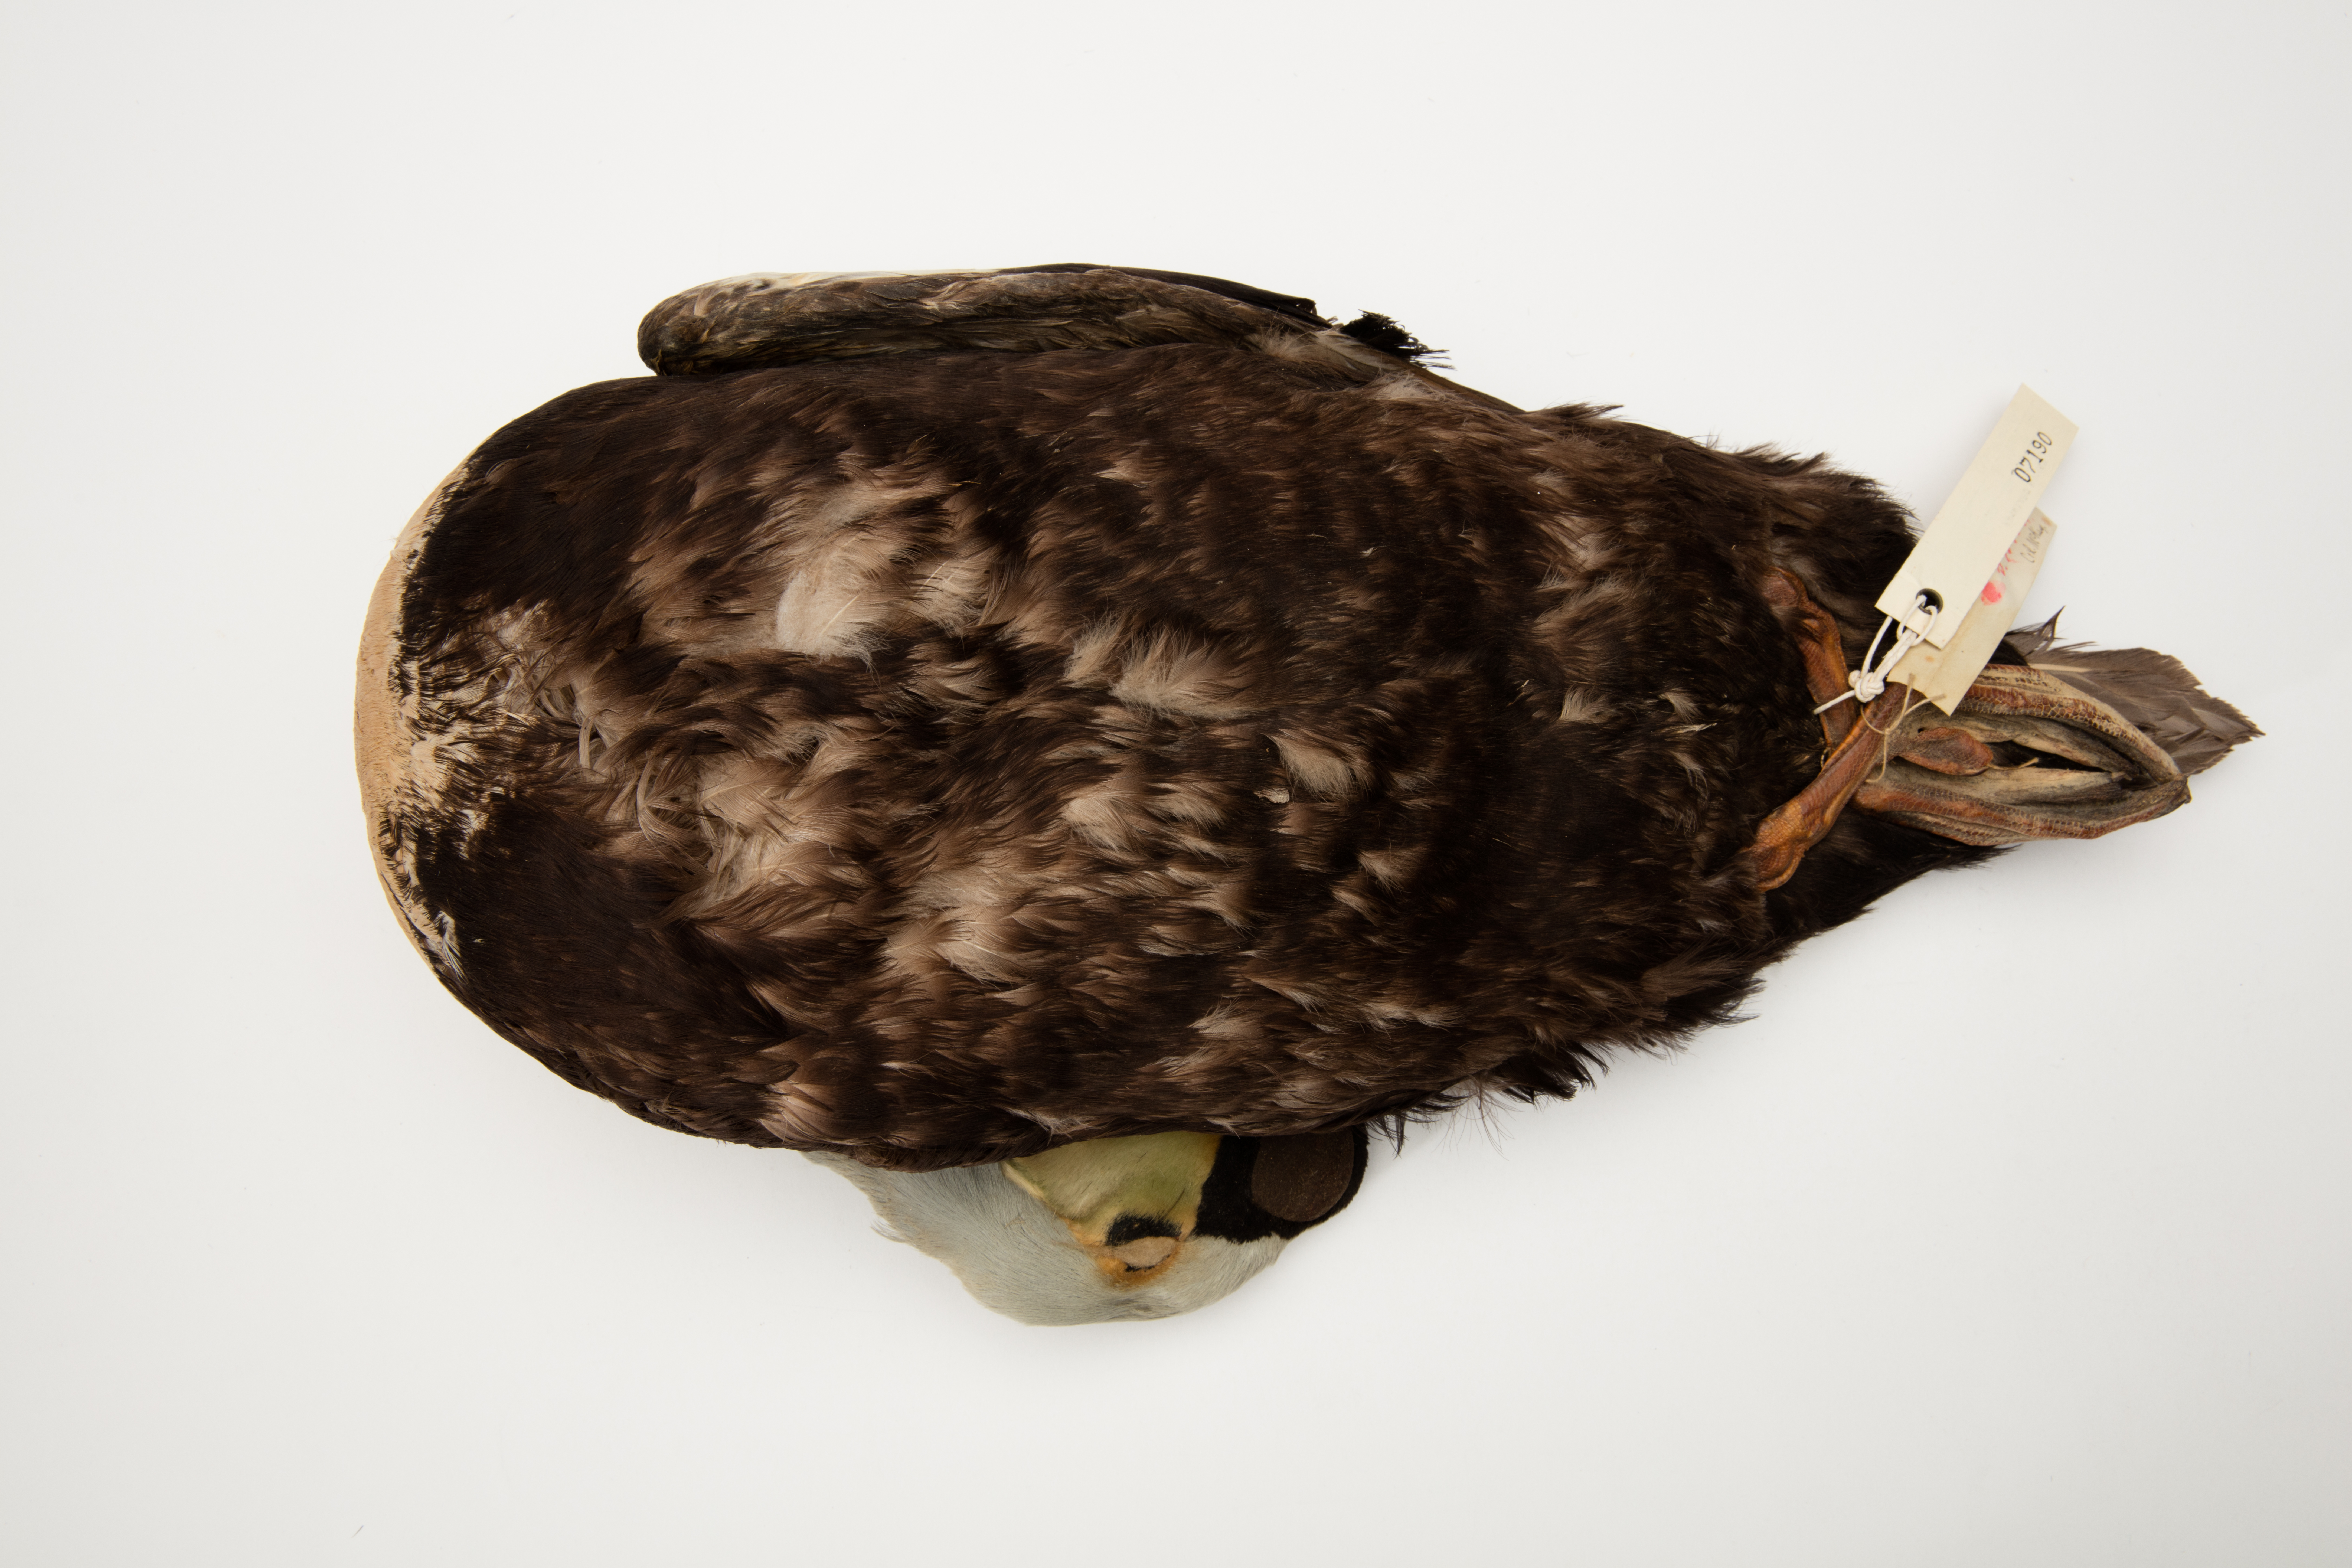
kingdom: Animalia
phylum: Chordata
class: Aves
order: Anseriformes
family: Anatidae
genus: Somateria
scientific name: Somateria spectabilis
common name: King eider
